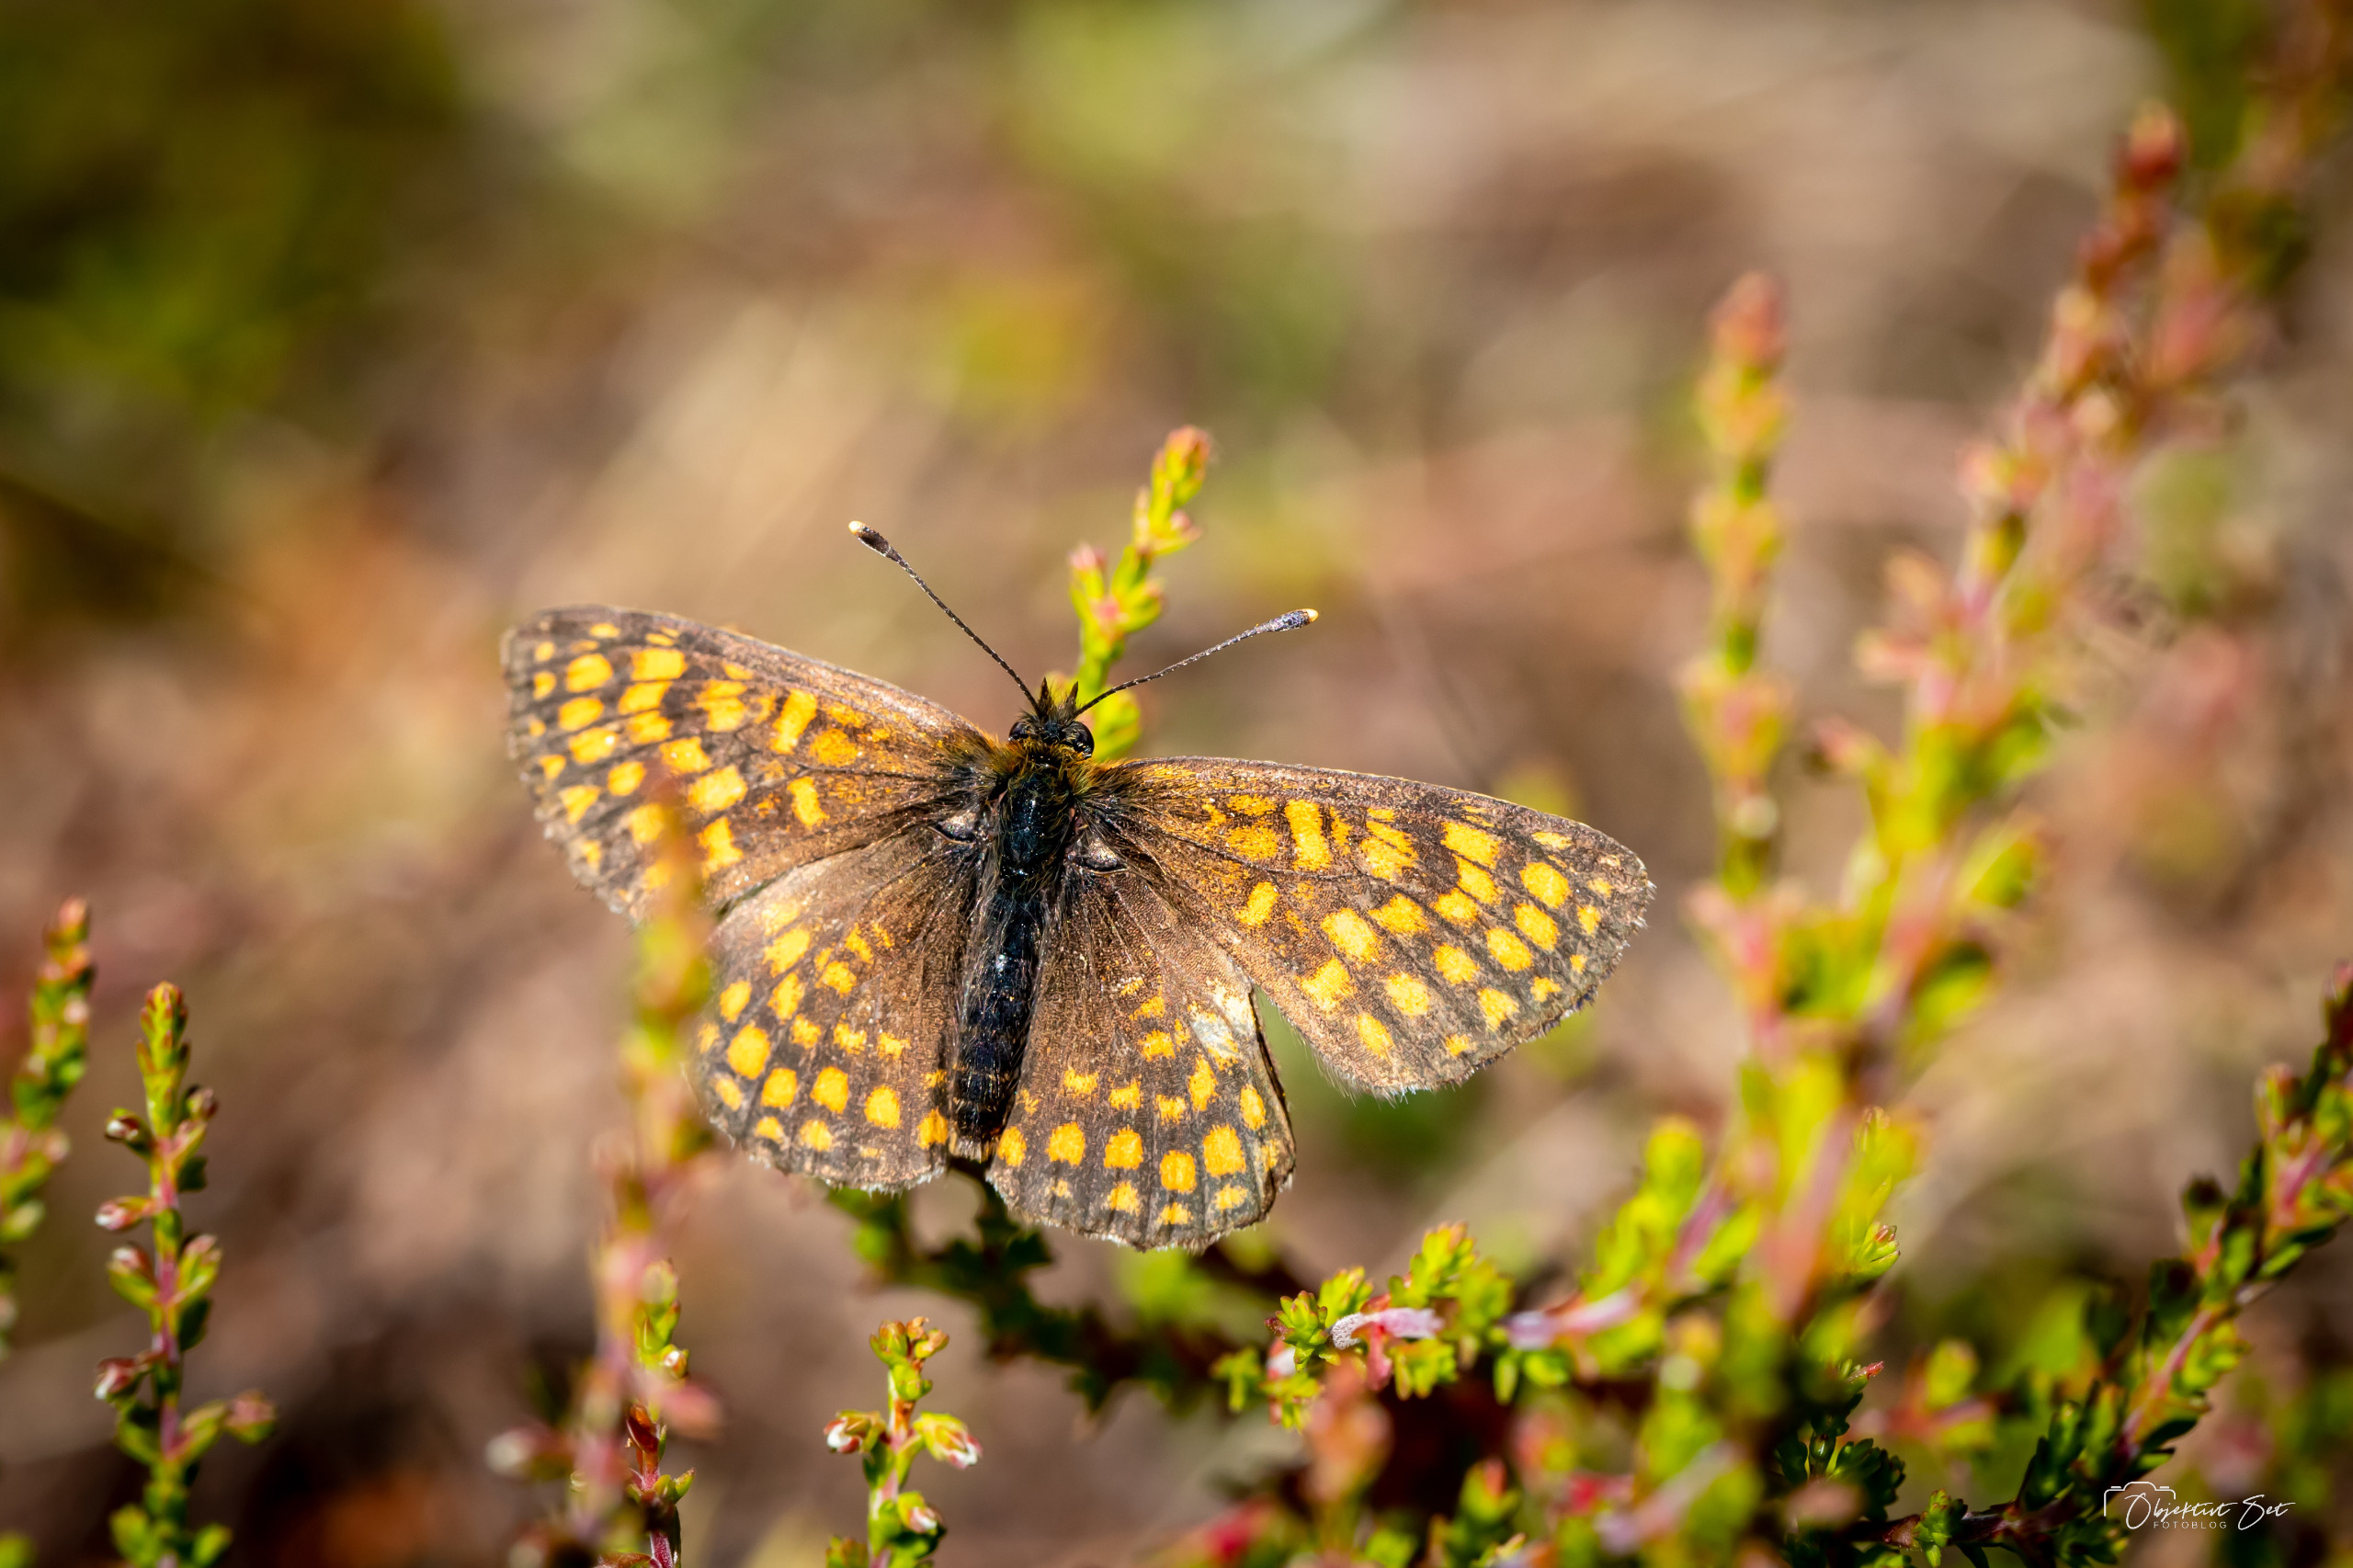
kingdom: Animalia
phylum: Arthropoda
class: Insecta
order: Lepidoptera
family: Nymphalidae
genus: Mellicta
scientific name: Mellicta athalia
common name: Brun pletvinge
